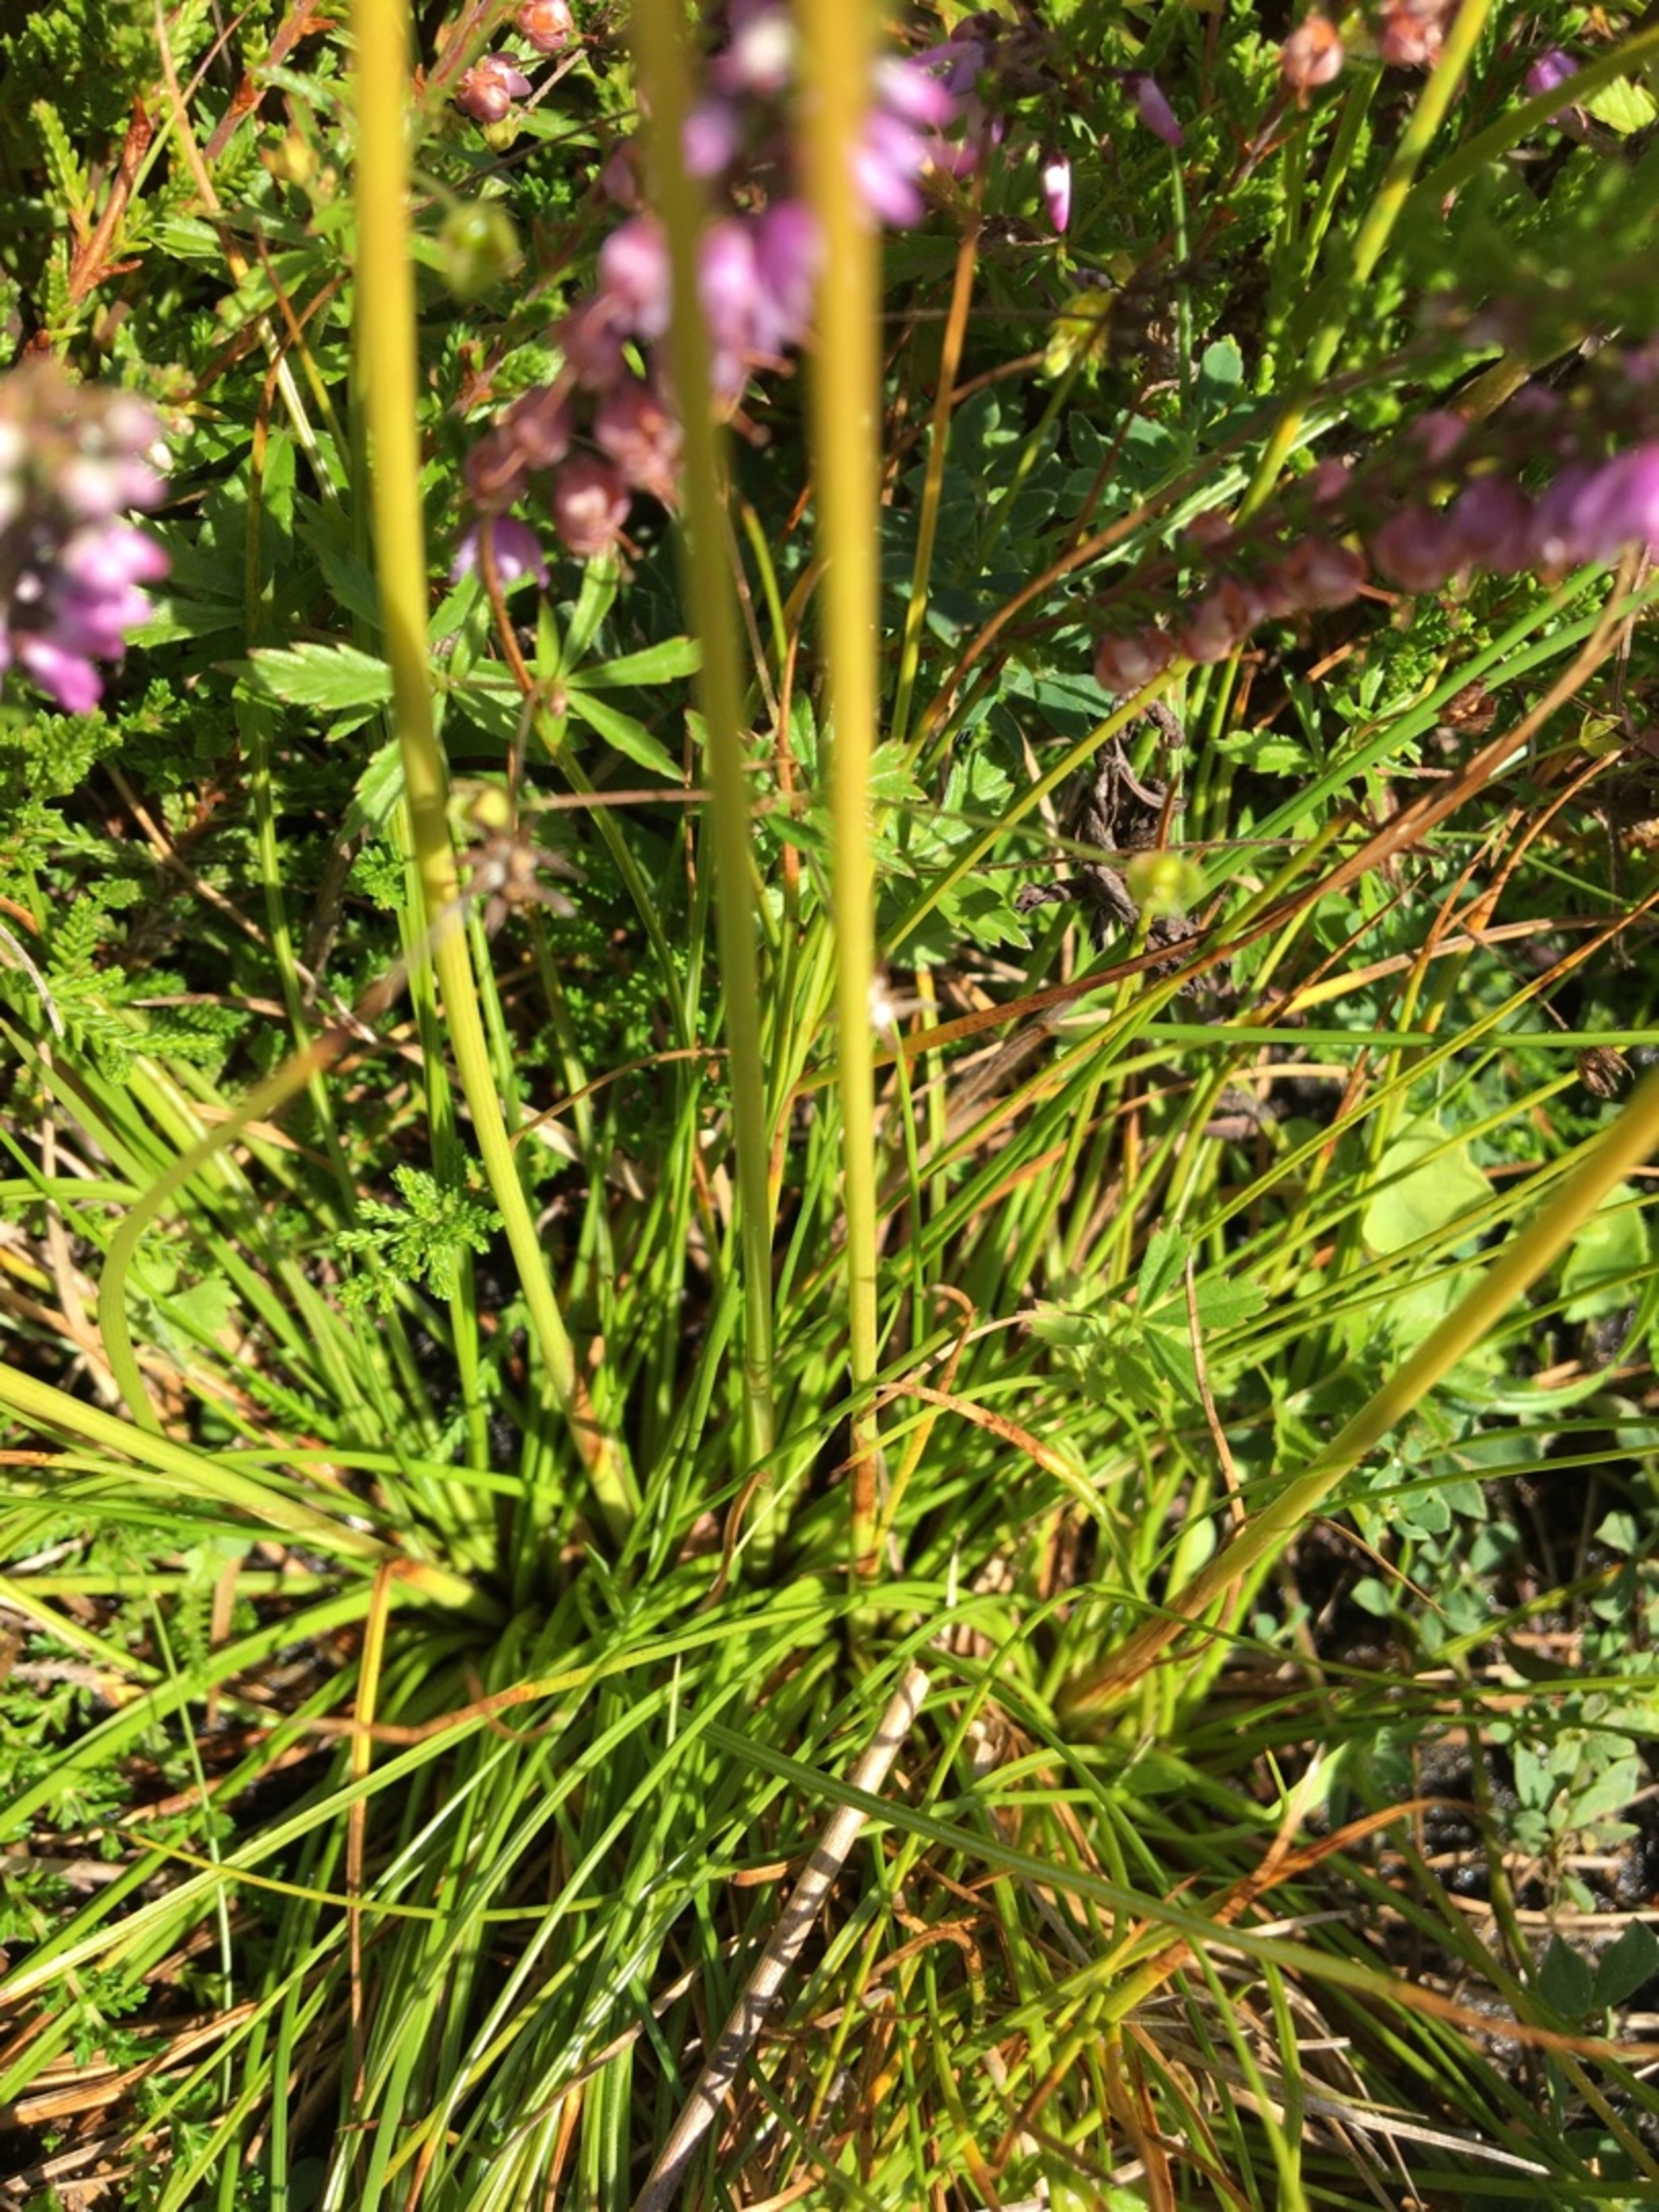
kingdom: Plantae
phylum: Tracheophyta
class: Liliopsida
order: Poales
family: Juncaceae
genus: Juncus
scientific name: Juncus squarrosus
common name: Børste-siv
